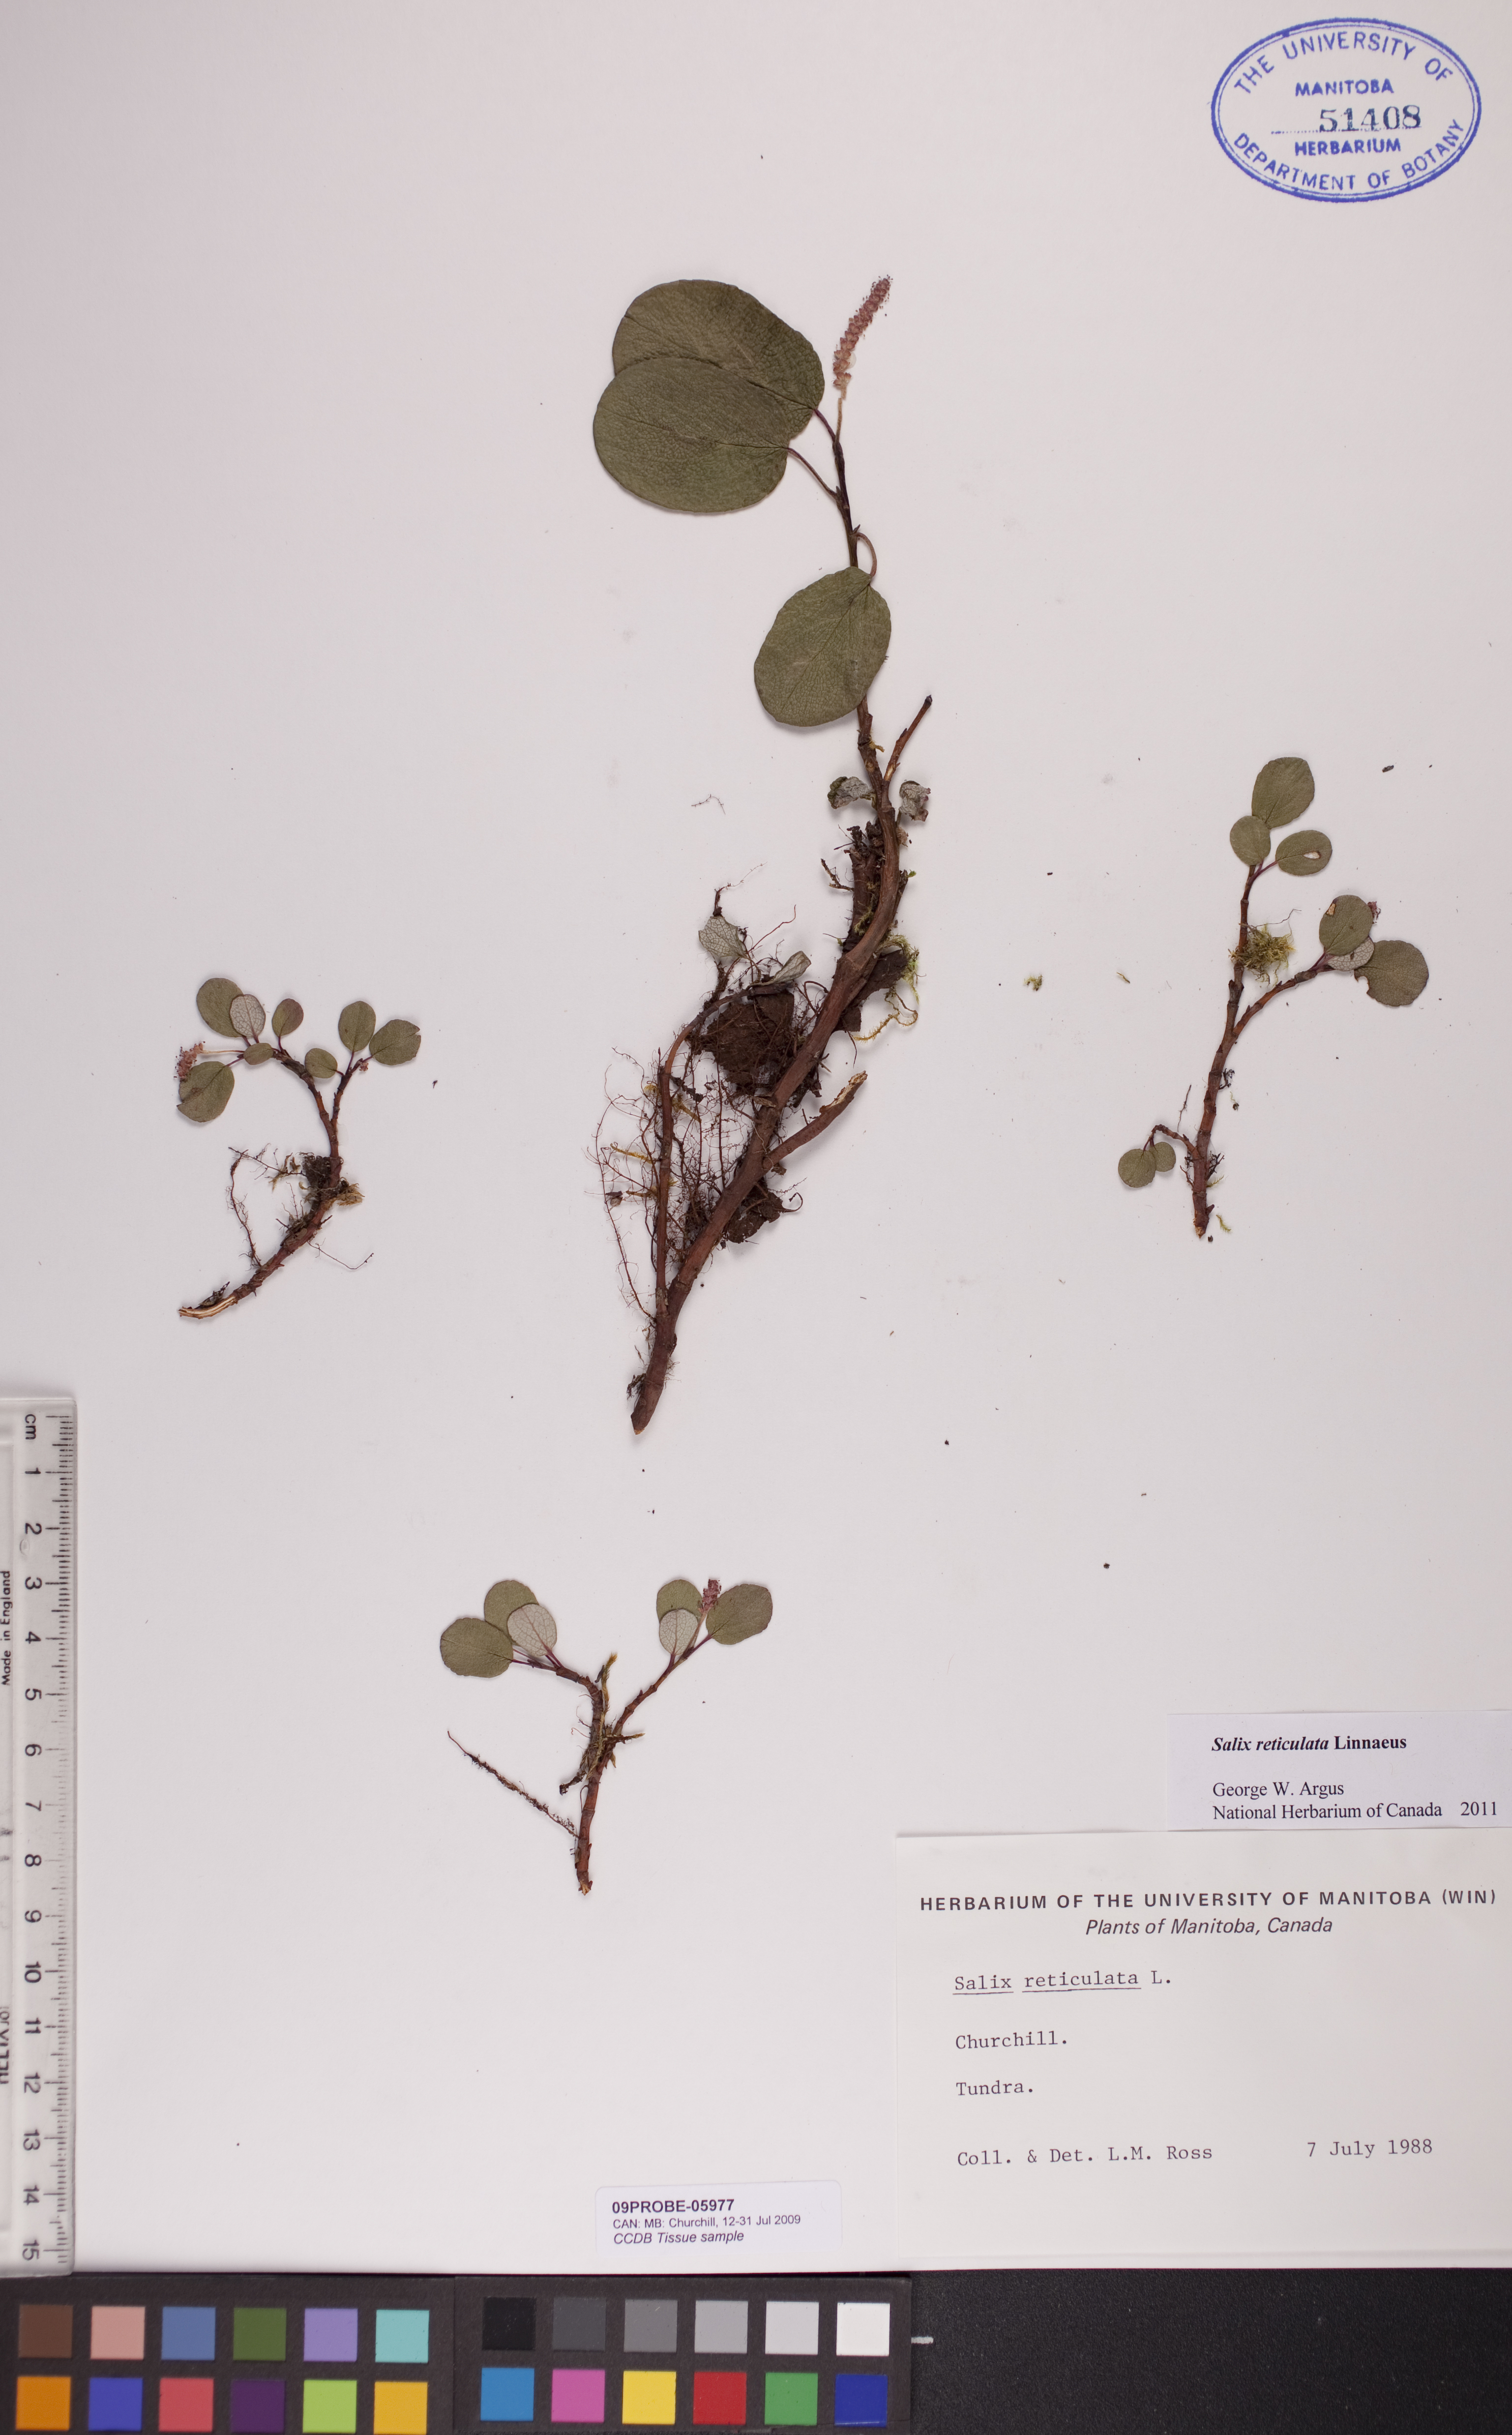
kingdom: Plantae
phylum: Tracheophyta
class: Magnoliopsida
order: Malpighiales
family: Salicaceae
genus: Salix
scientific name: Salix reticulata
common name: Net-leaved willow
